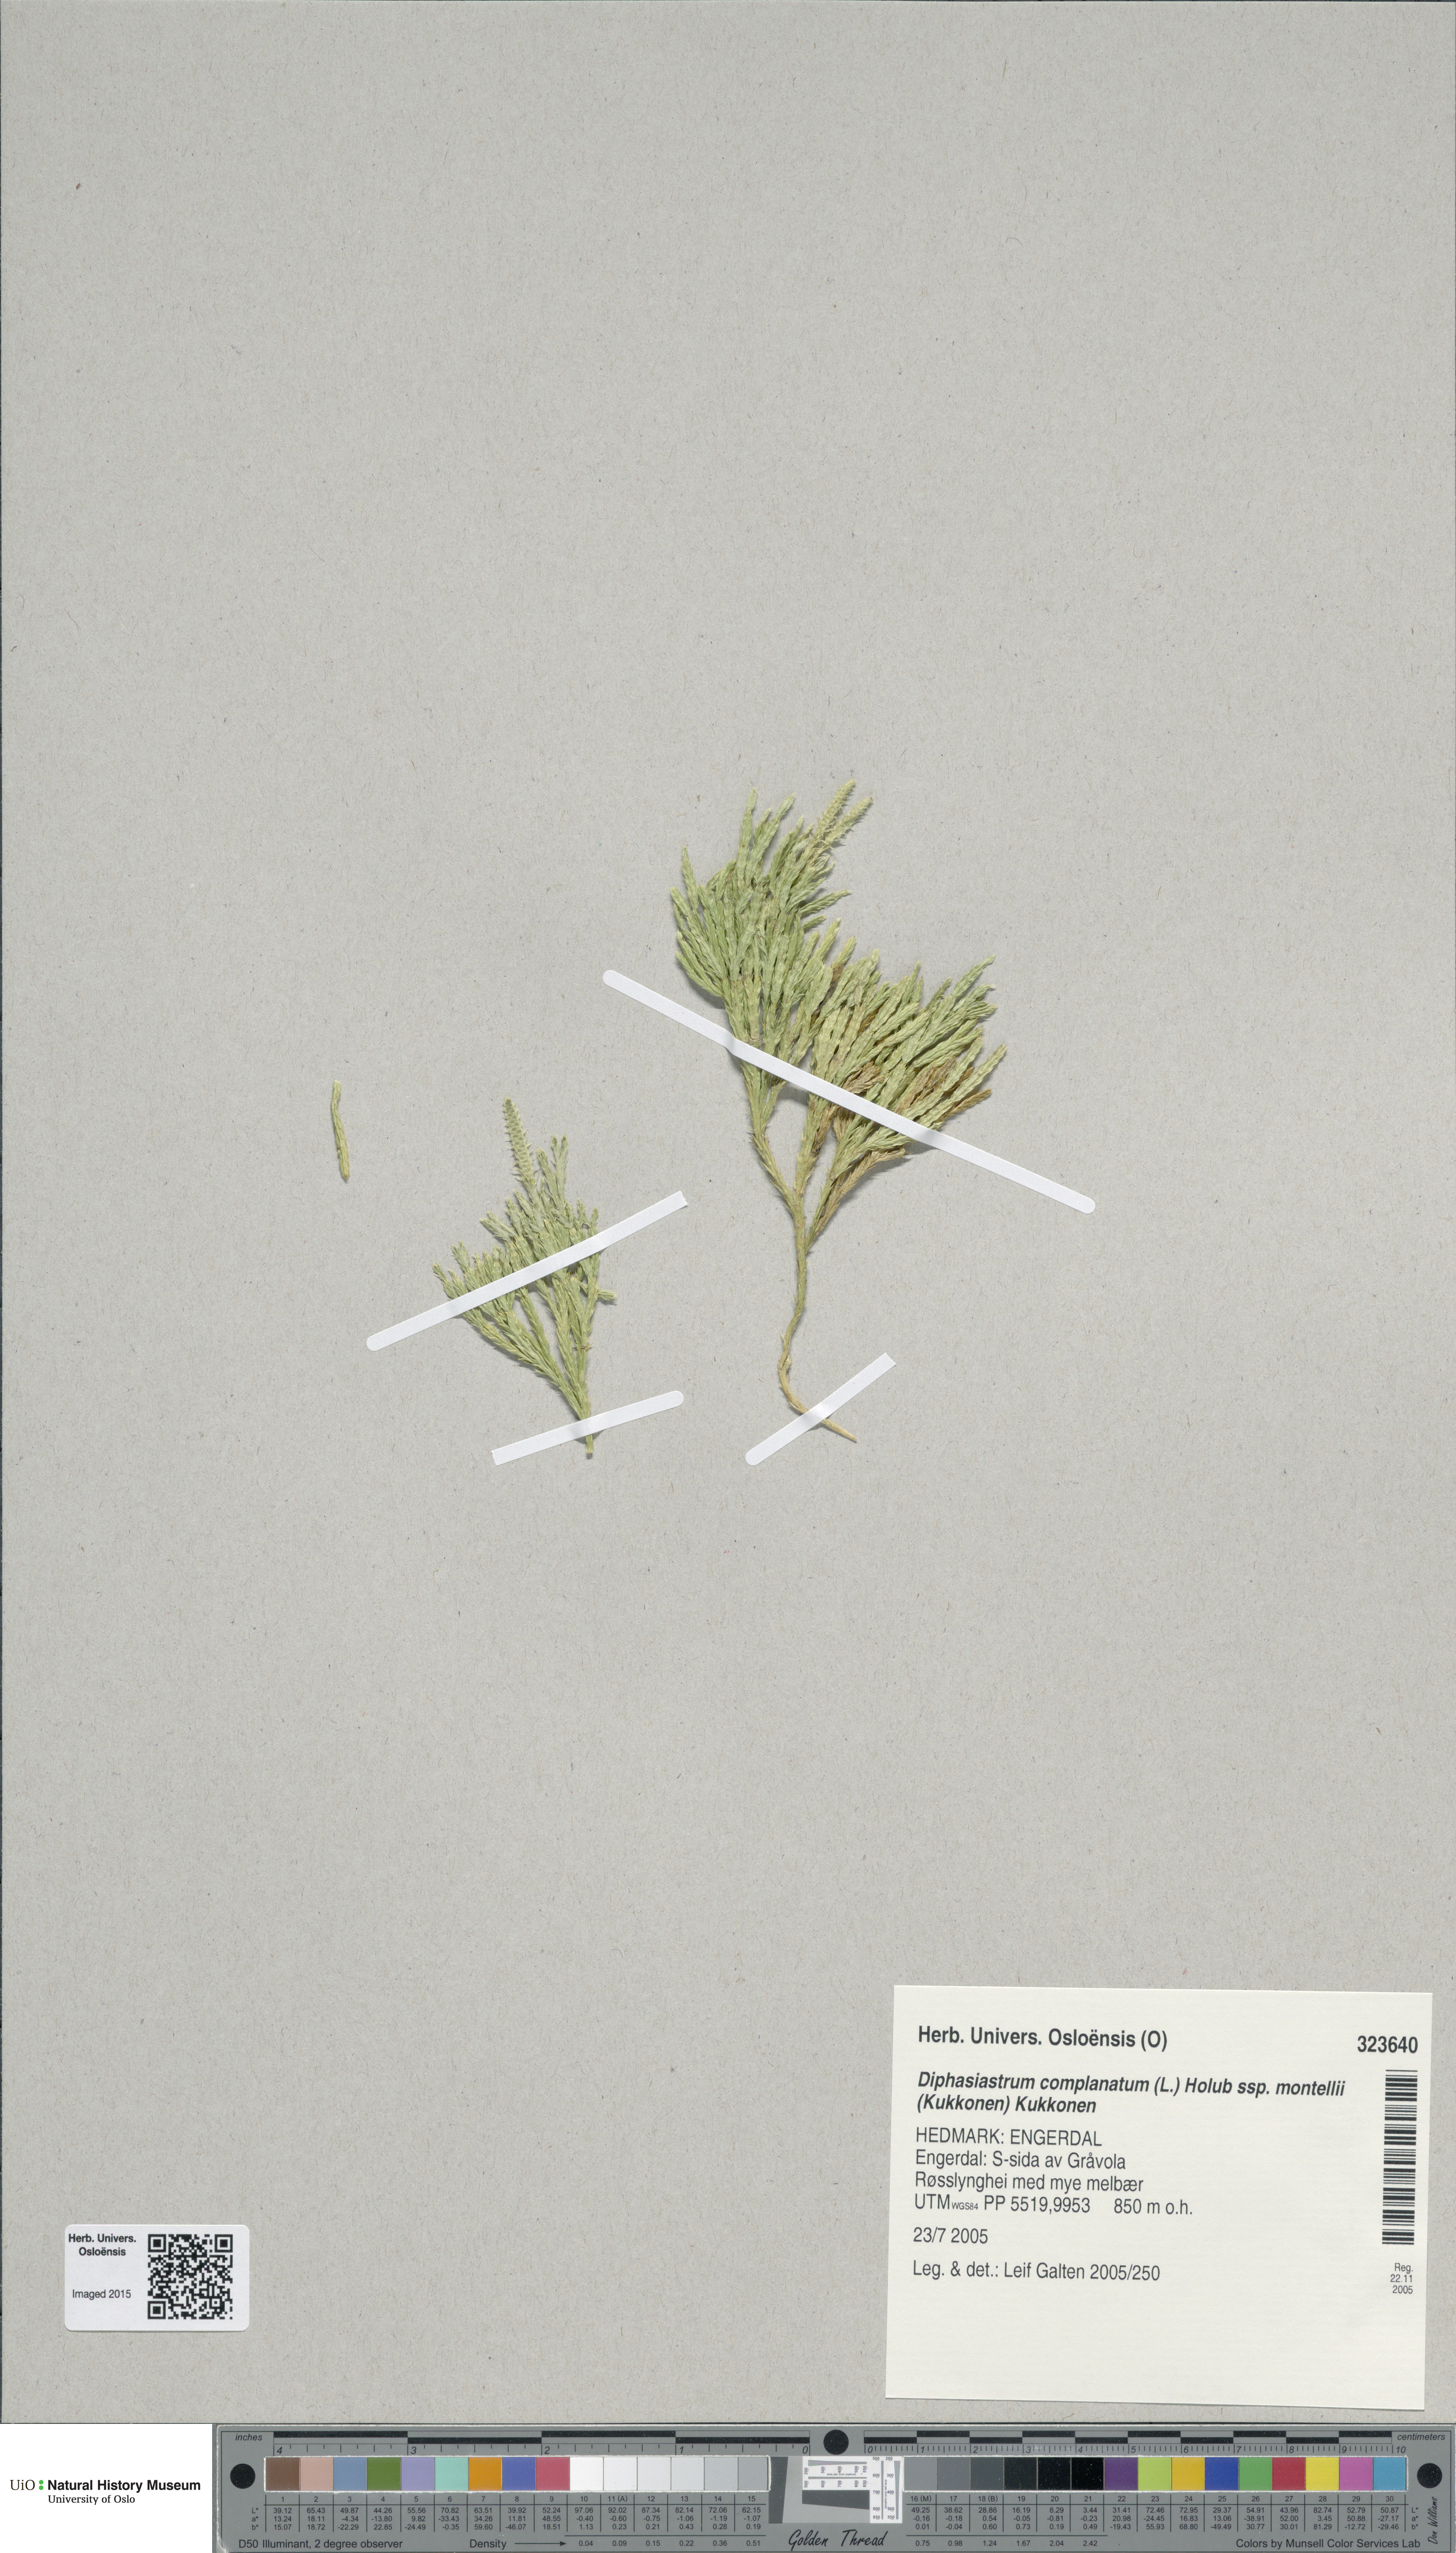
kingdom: Plantae
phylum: Tracheophyta
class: Lycopodiopsida
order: Lycopodiales
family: Lycopodiaceae
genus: Diphasiastrum
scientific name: Diphasiastrum complanatum
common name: Northern running-pine
